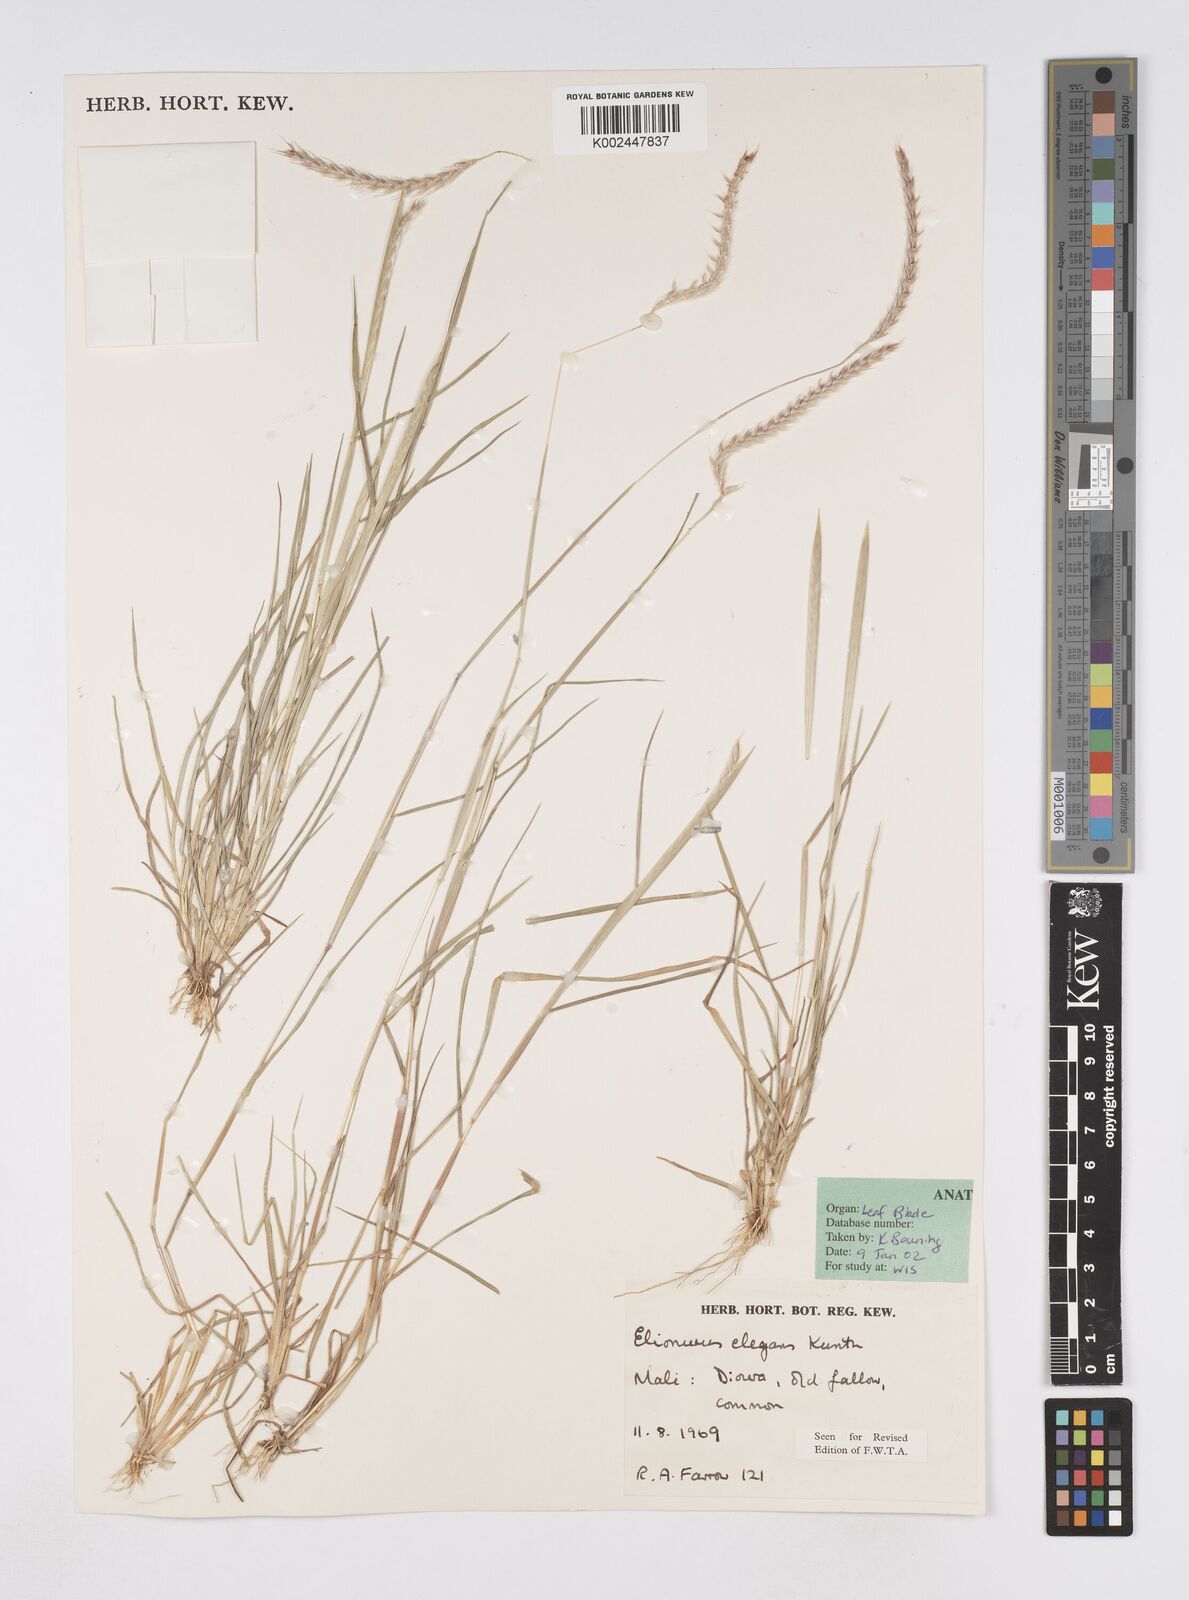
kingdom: Plantae
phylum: Tracheophyta
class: Liliopsida
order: Poales
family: Poaceae
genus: Elionurus
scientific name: Elionurus elegans
